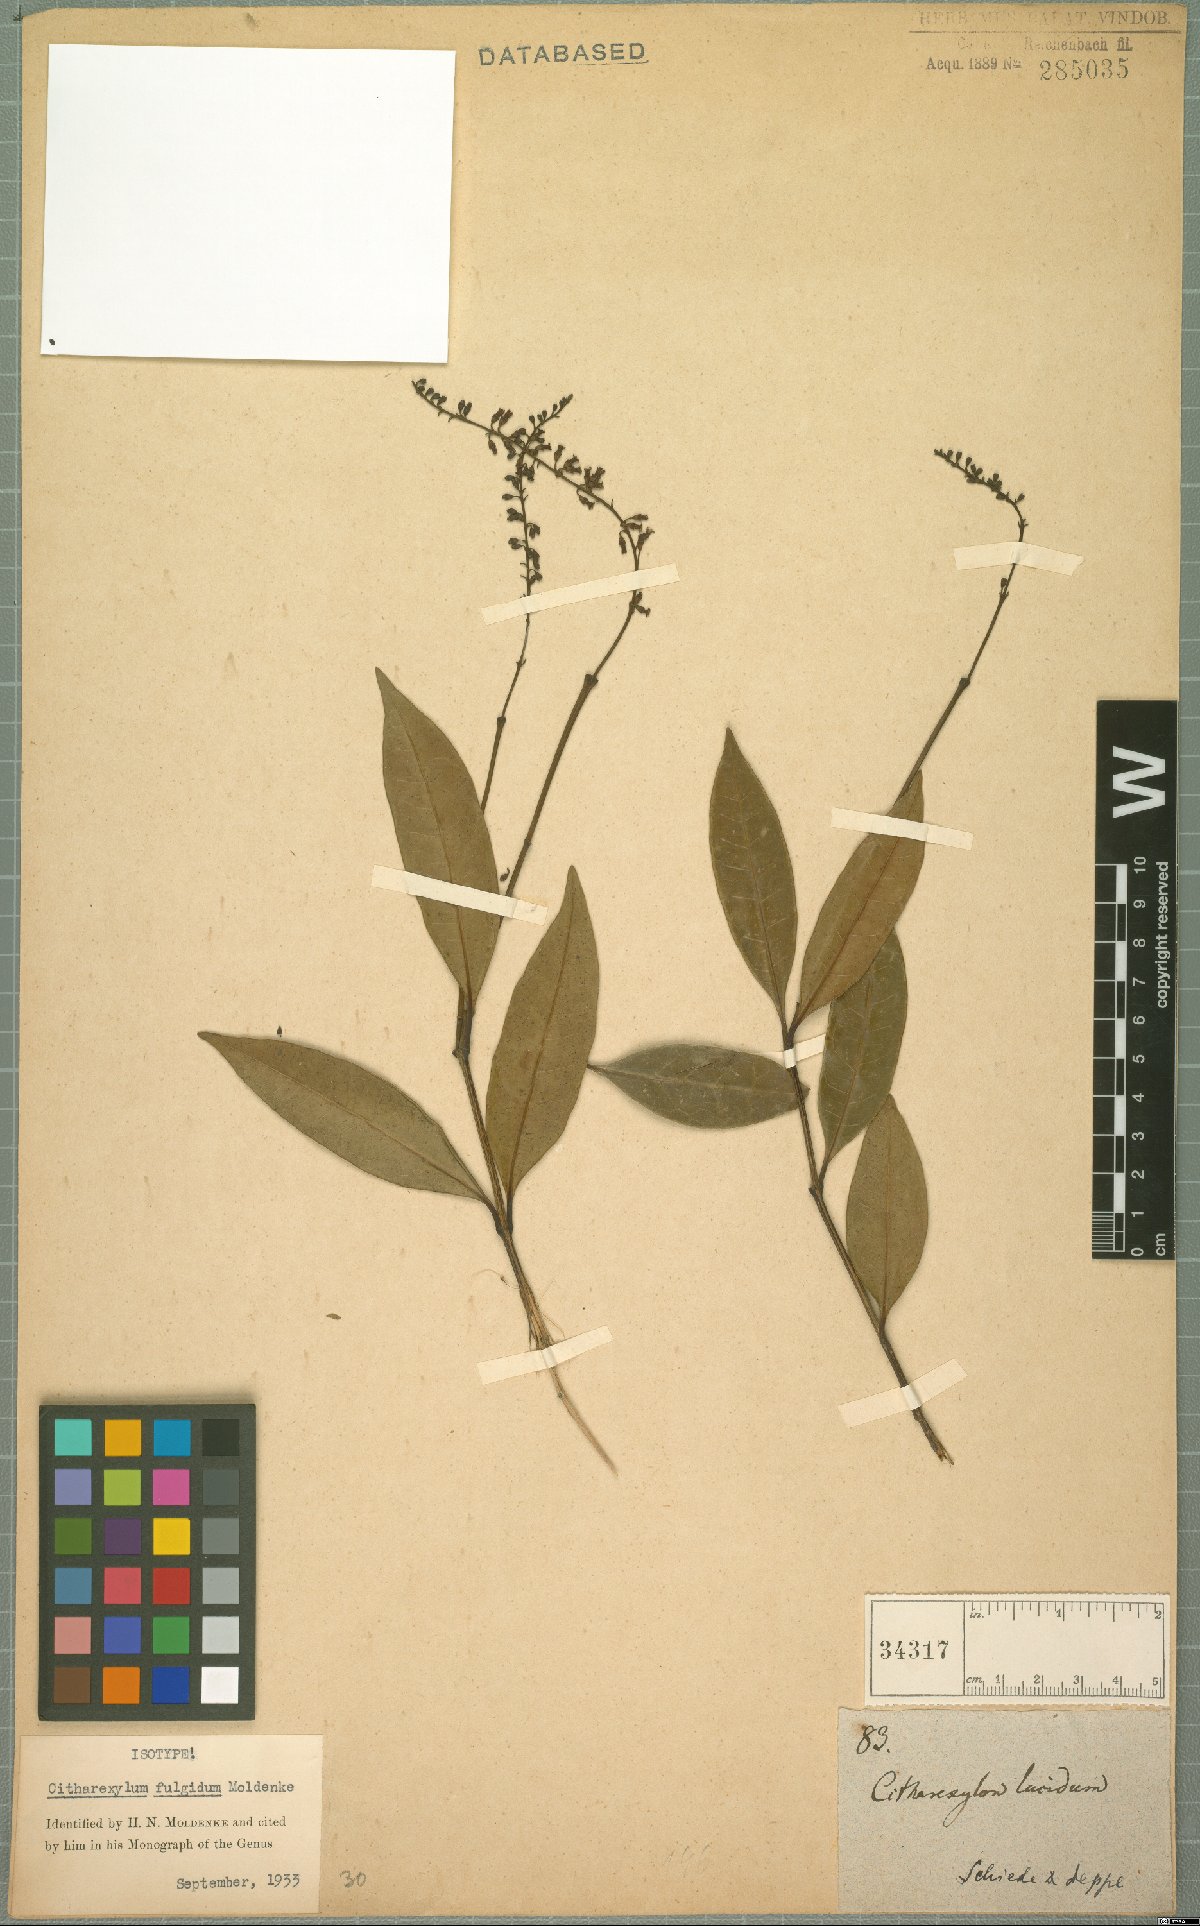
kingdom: Plantae
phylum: Tracheophyta
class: Magnoliopsida
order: Lamiales
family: Verbenaceae
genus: Citharexylum
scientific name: Citharexylum fulgidum
